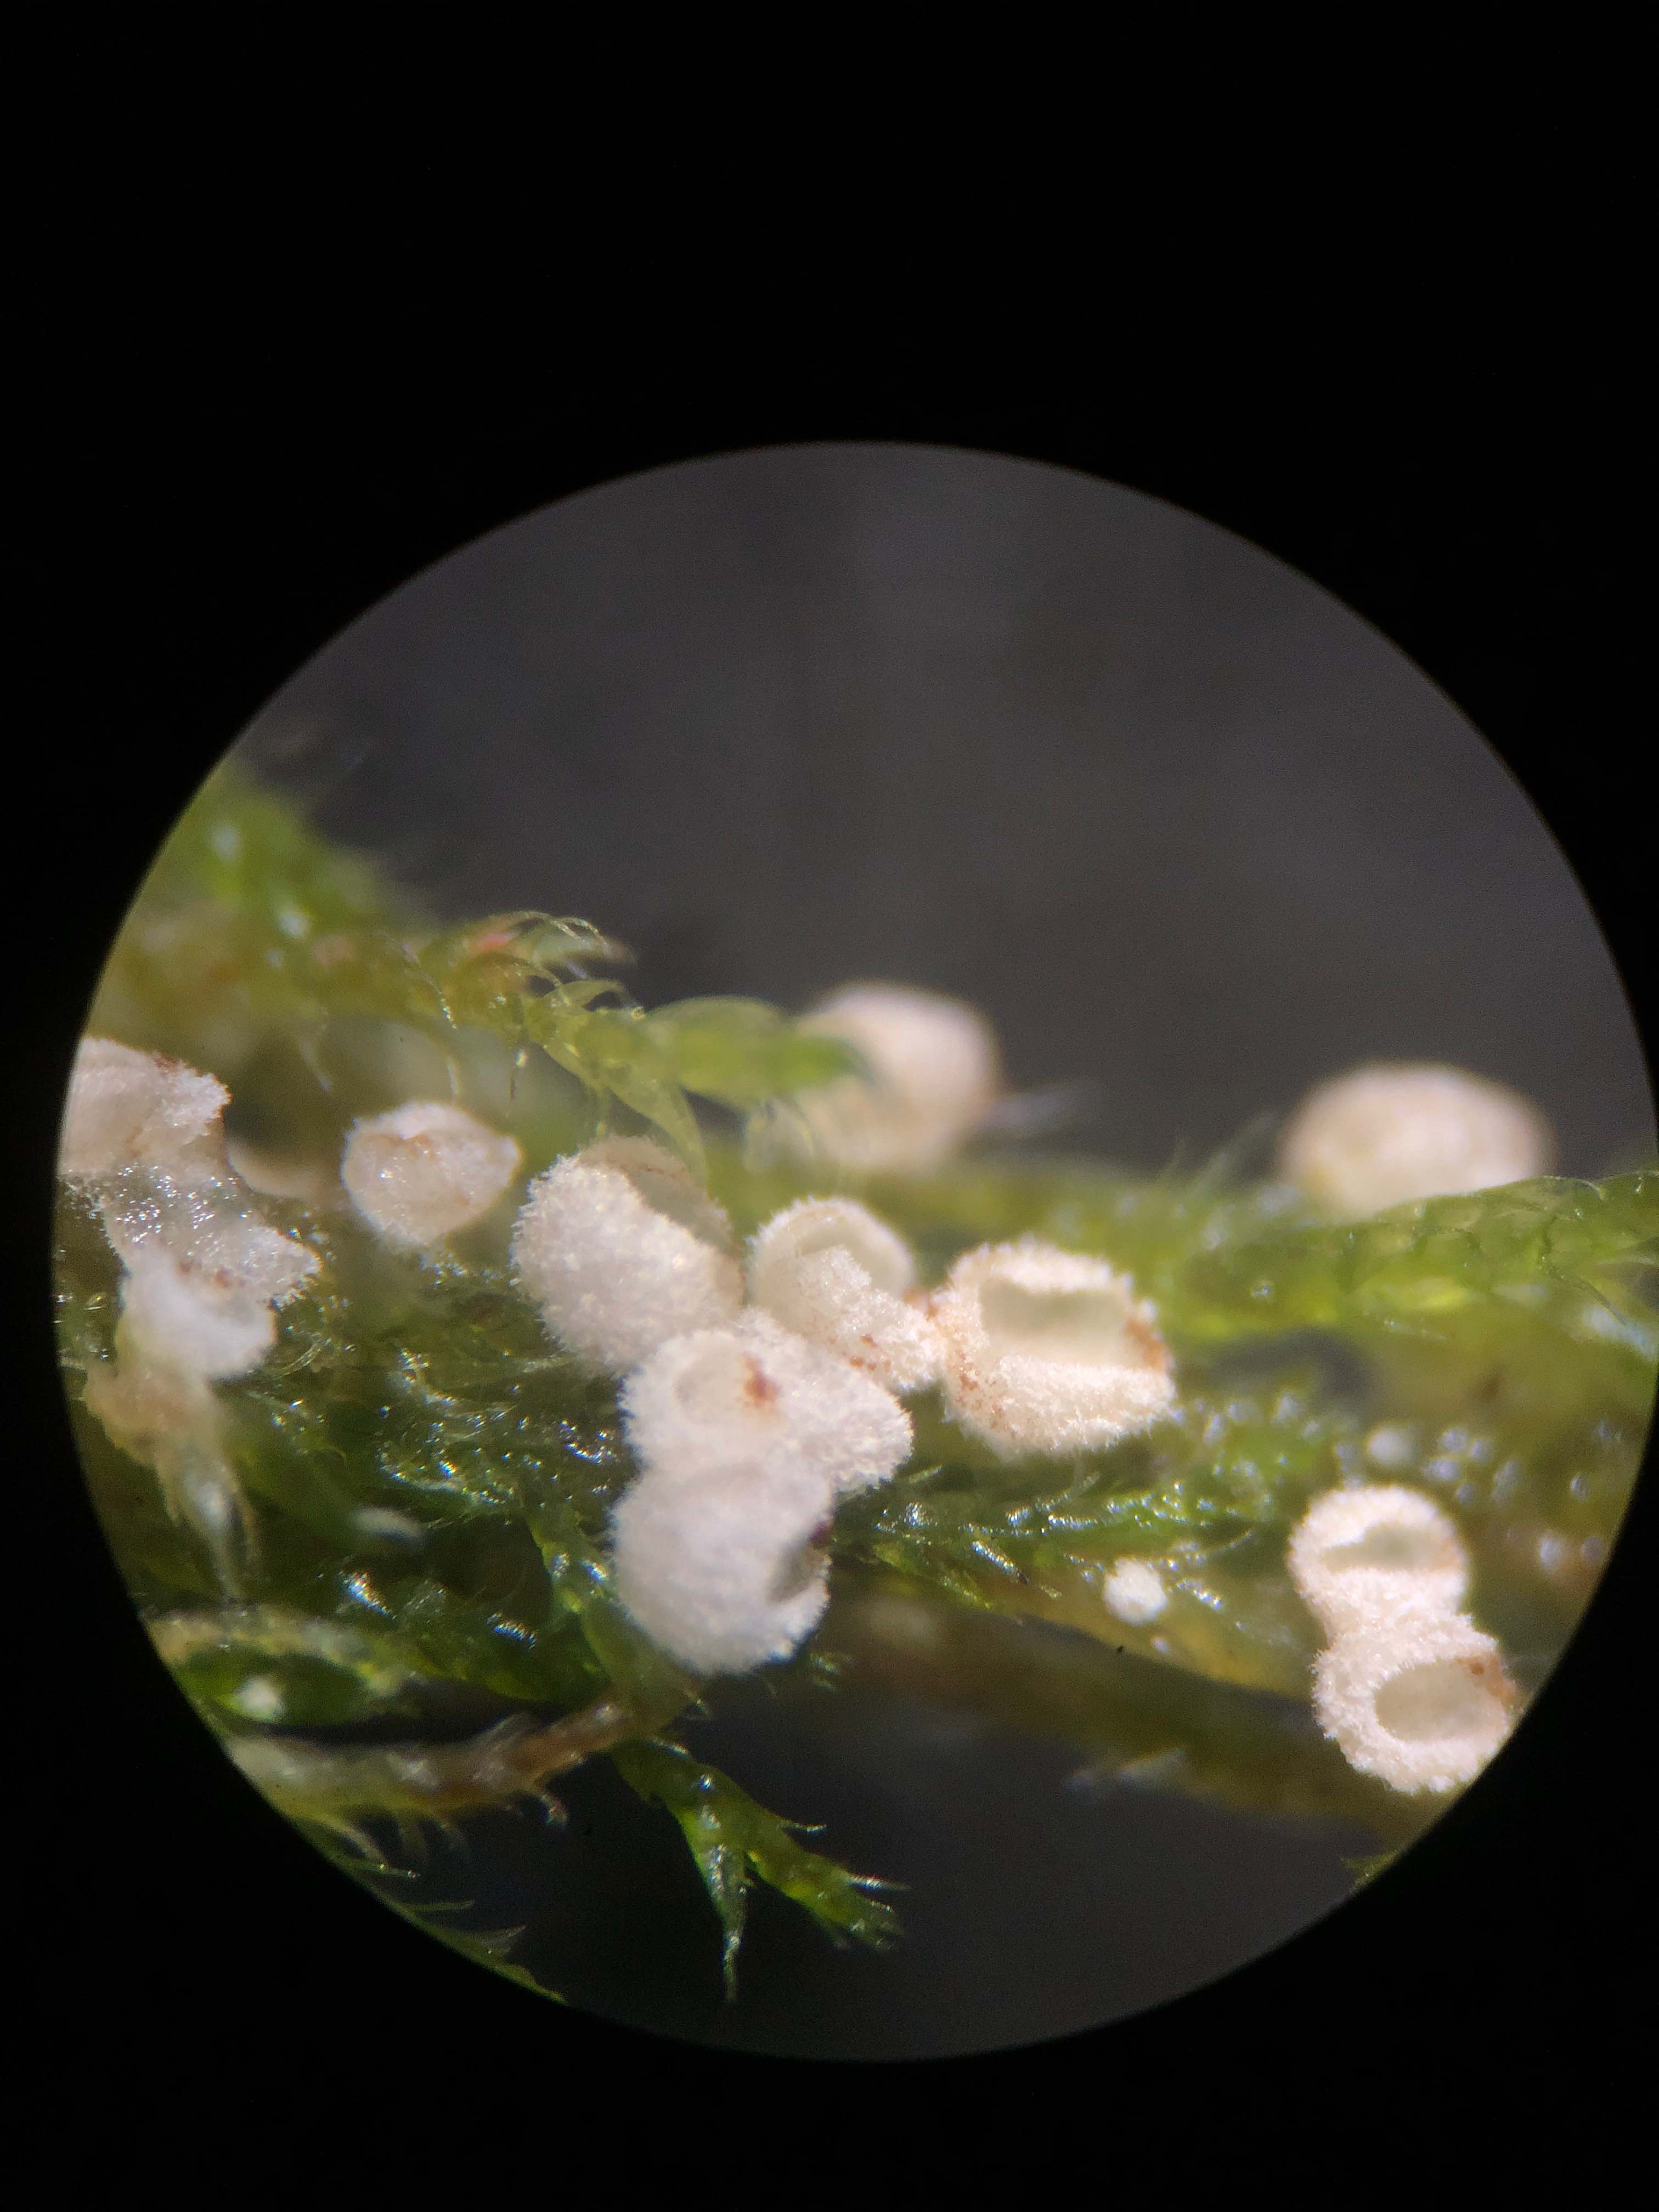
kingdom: Fungi
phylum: Basidiomycota
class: Agaricomycetes
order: Agaricales
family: Chromocyphellaceae
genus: Chromocyphella
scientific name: Chromocyphella muscicola
